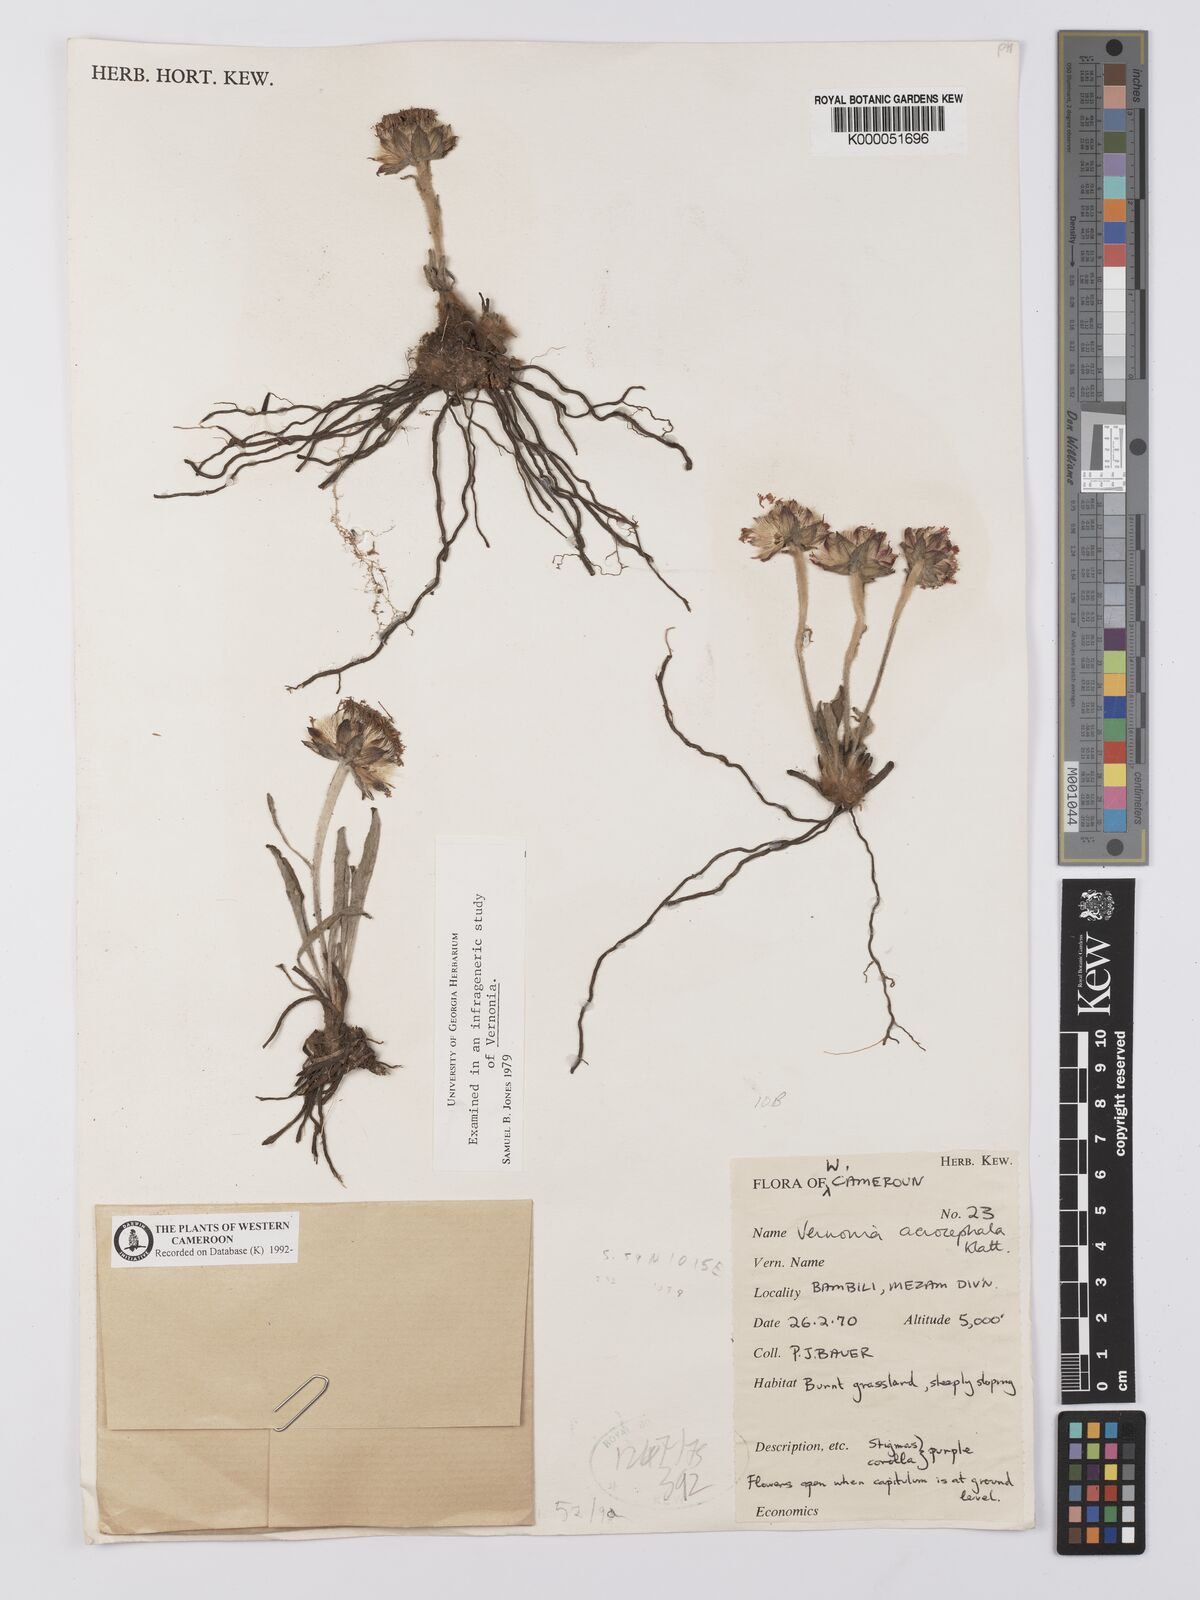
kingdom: Plantae
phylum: Tracheophyta
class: Magnoliopsida
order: Asterales
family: Asteraceae
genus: Vernonella
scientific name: Vernonella acrocephala
